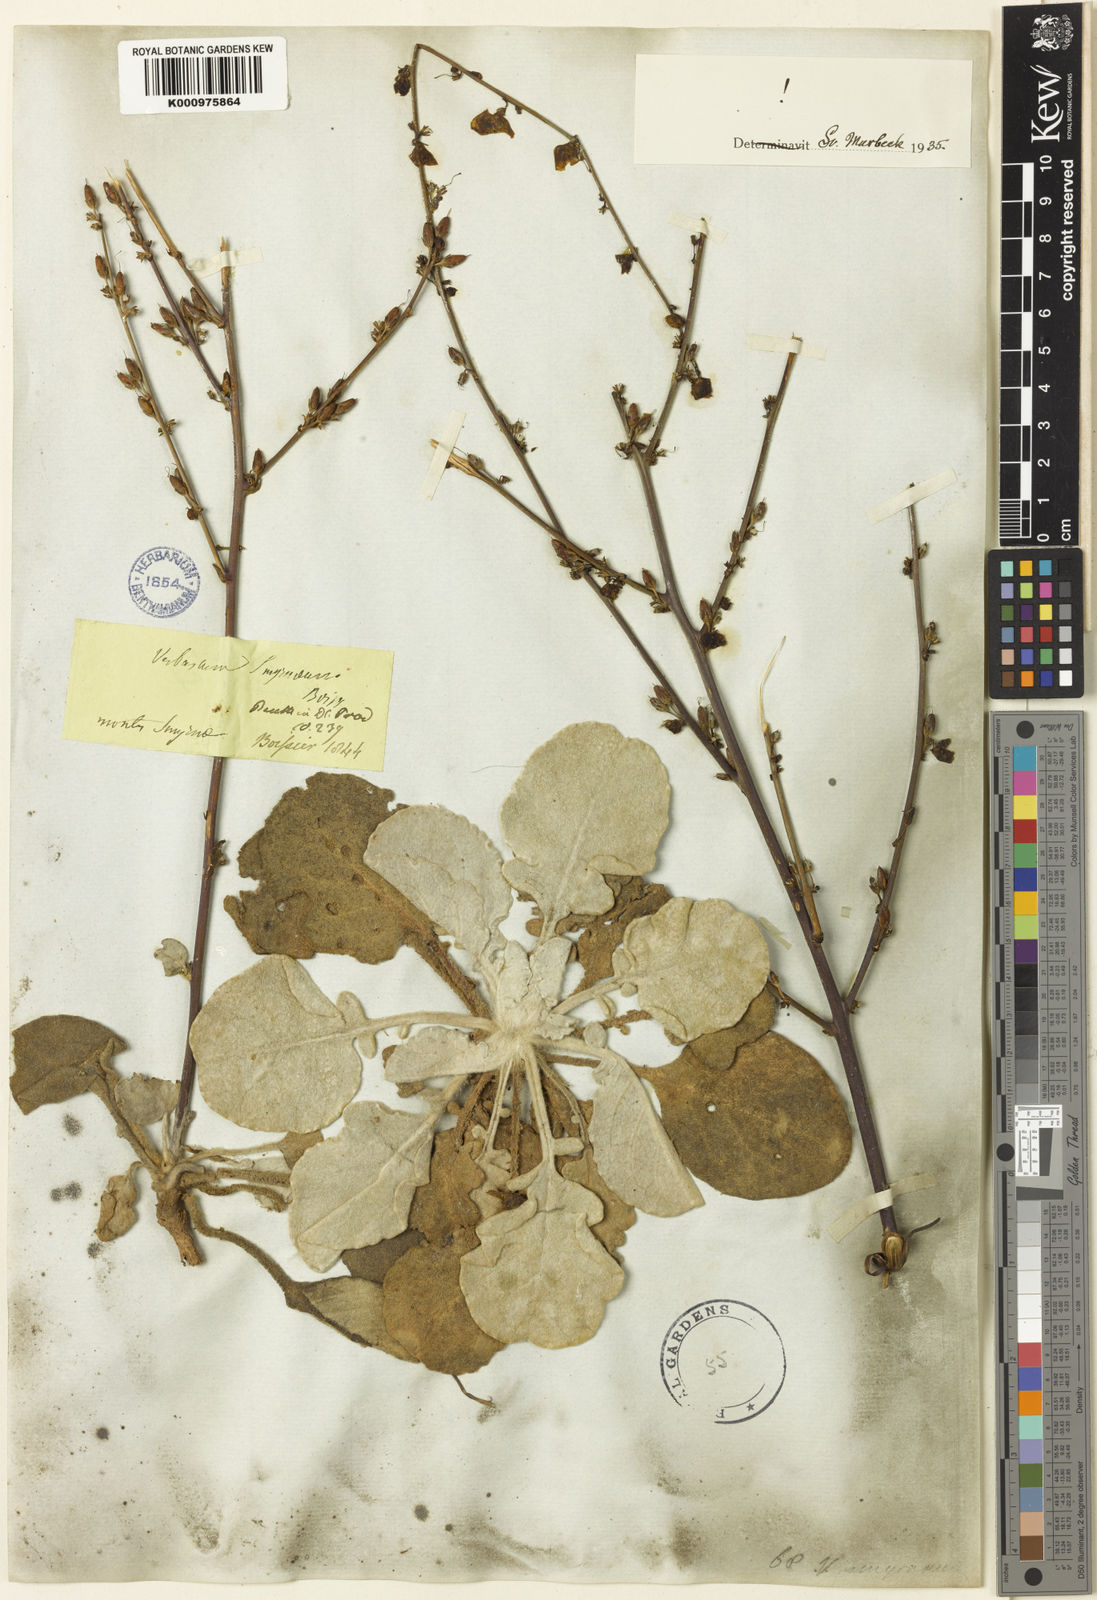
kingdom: Plantae
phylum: Tracheophyta
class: Magnoliopsida
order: Lamiales
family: Scrophulariaceae
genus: Verbascum
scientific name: Verbascum smyrnaeum
